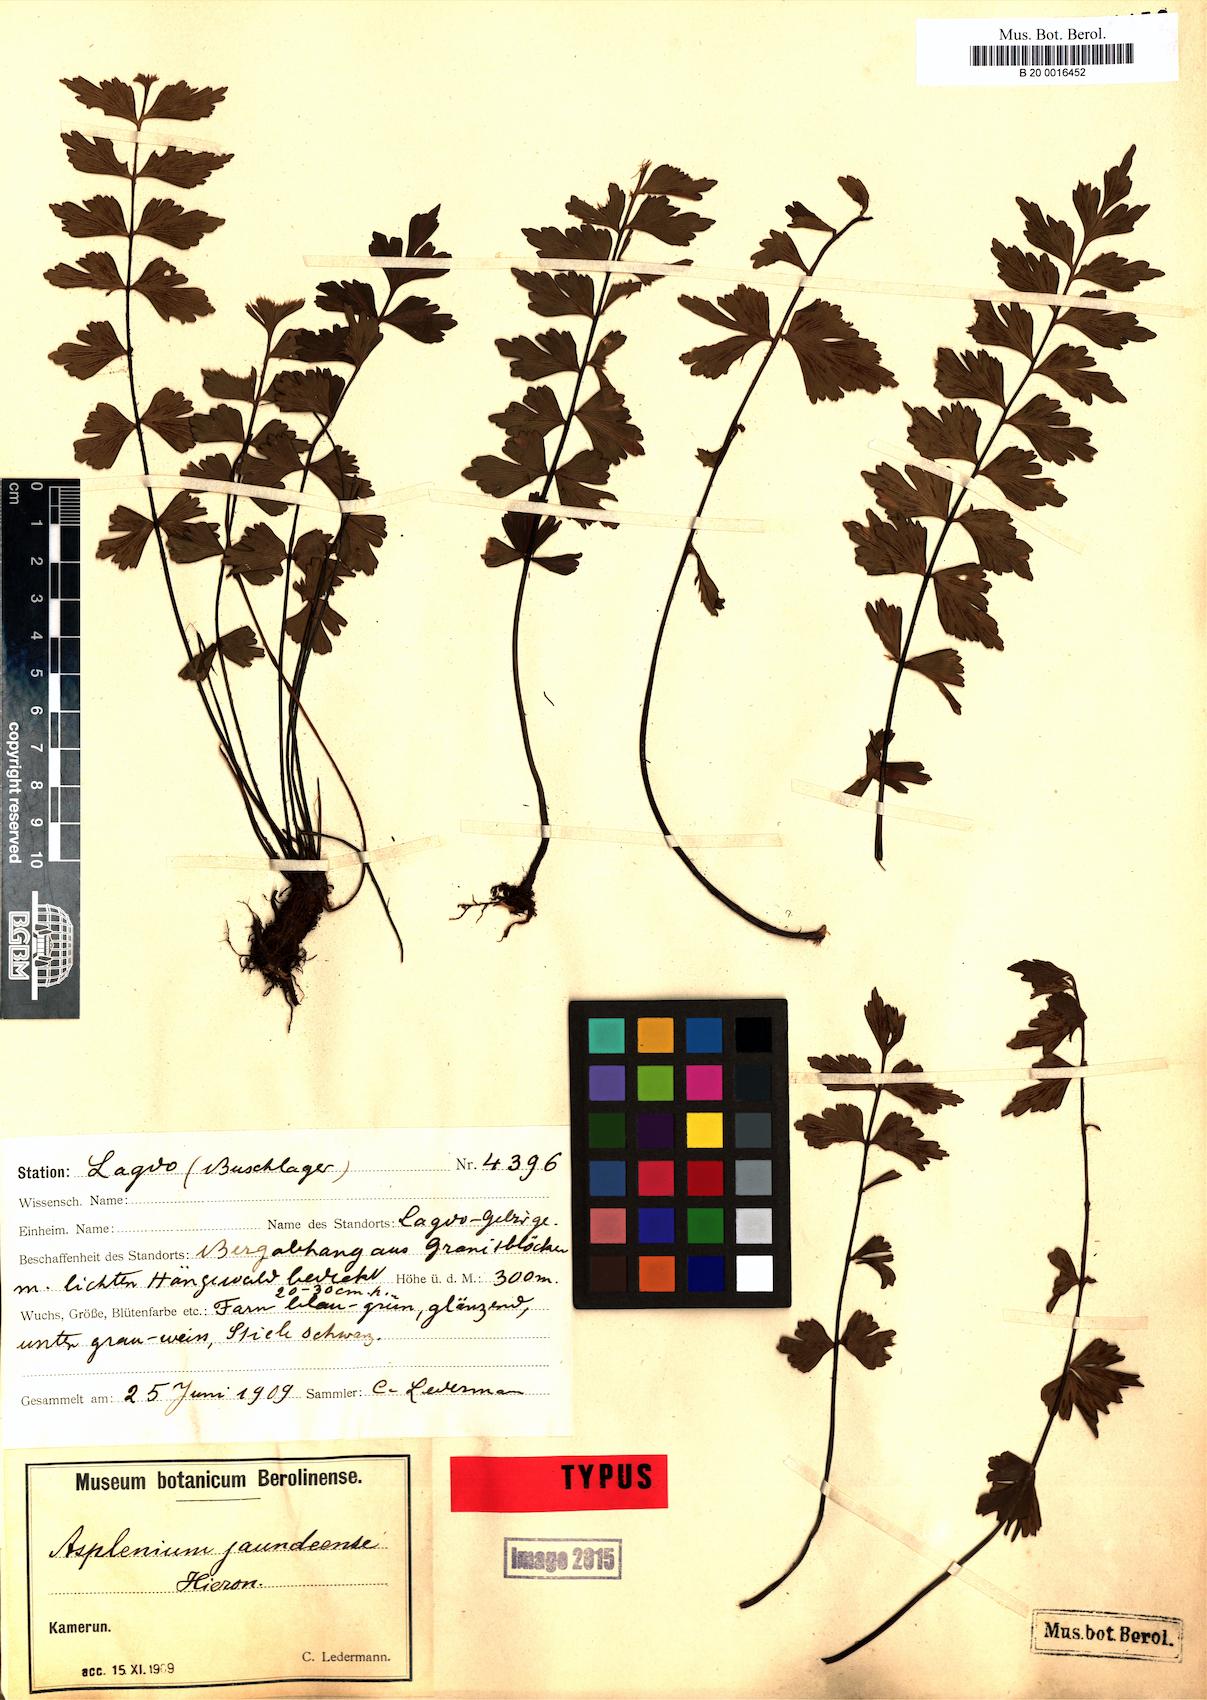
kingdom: Plantae
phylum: Tracheophyta
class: Polypodiopsida
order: Polypodiales
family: Aspleniaceae
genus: Asplenium
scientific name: Asplenium jaundeense
